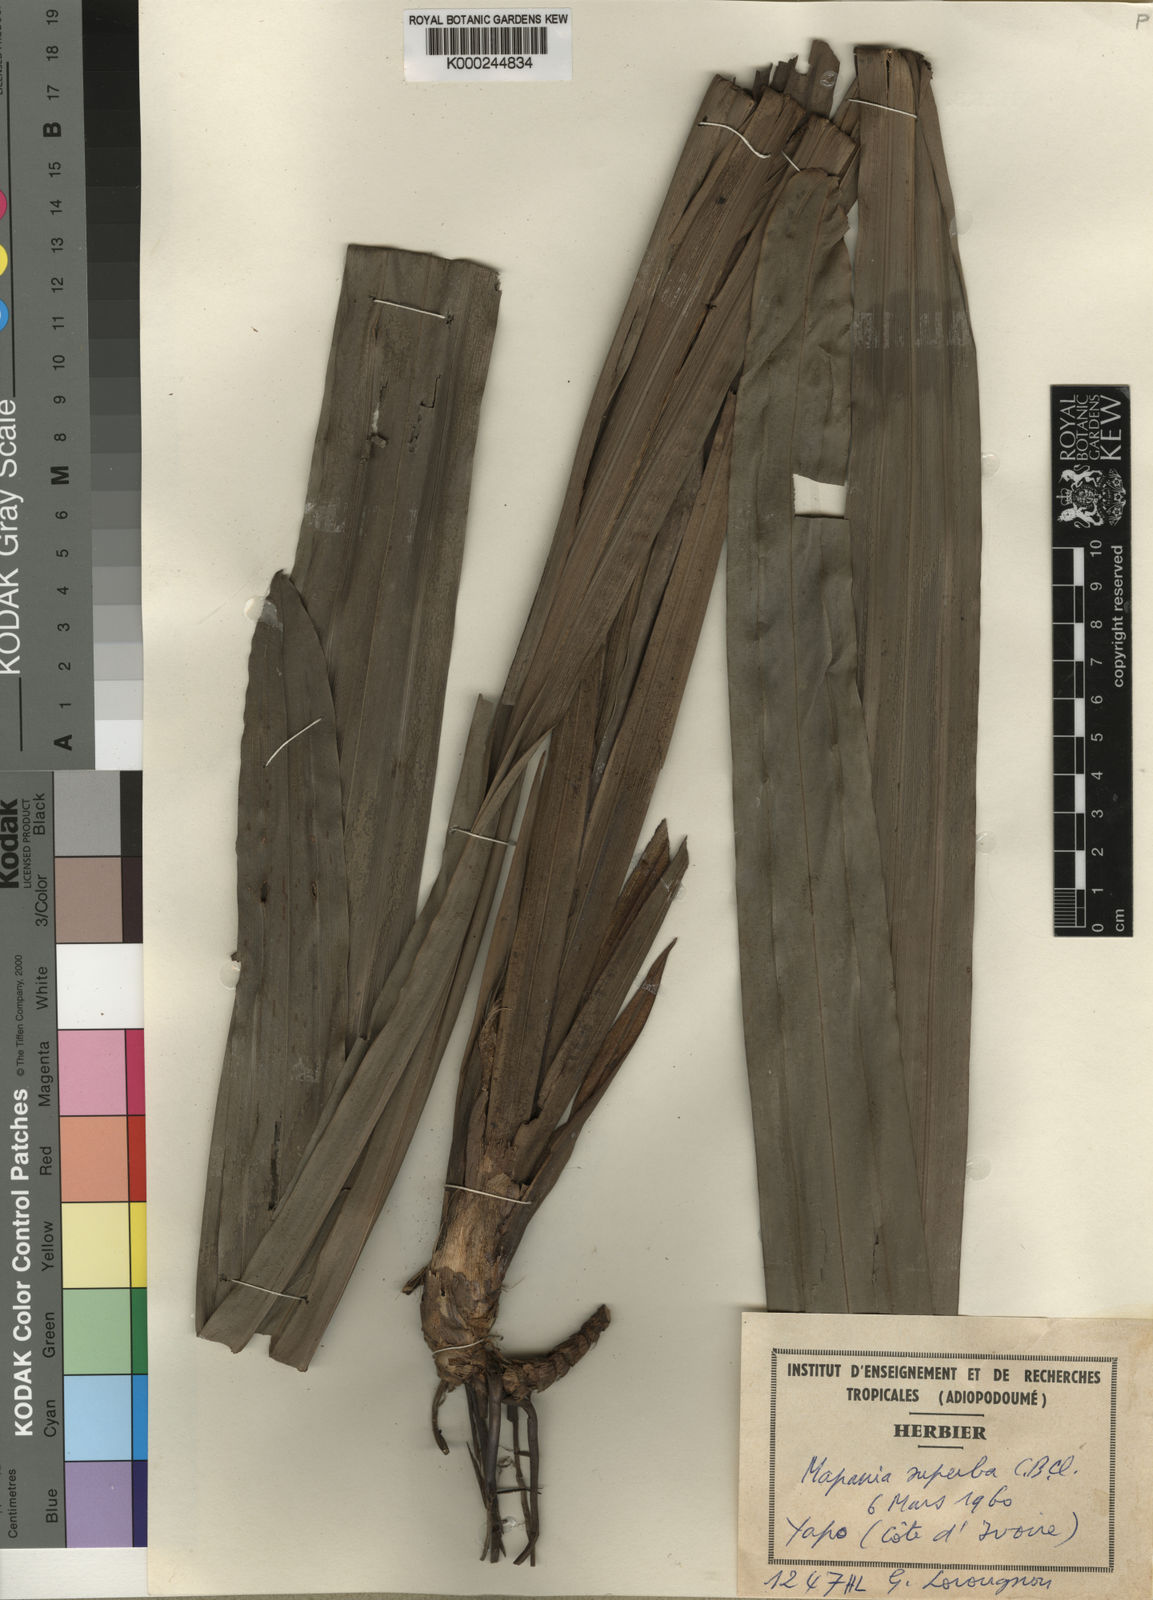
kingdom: Plantae
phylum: Tracheophyta
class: Liliopsida
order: Poales
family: Cyperaceae
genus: Mapania
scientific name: Mapania ivorensis
